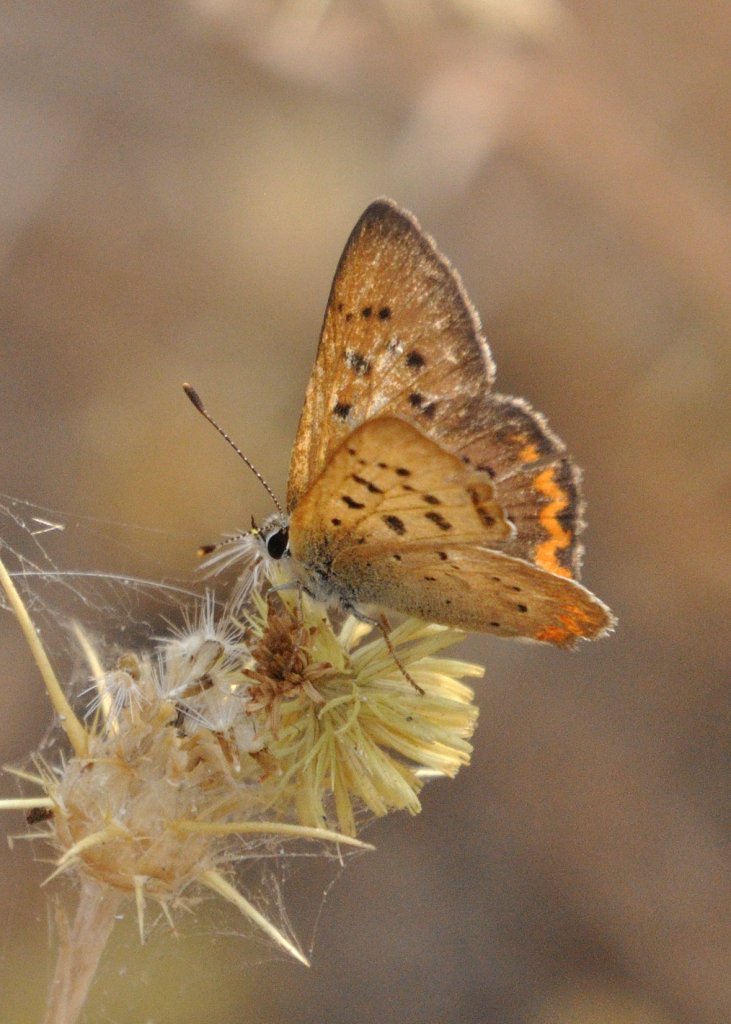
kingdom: Animalia
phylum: Arthropoda
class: Insecta
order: Lepidoptera
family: Sesiidae
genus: Sesia
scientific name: Sesia Lycaena helloides
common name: Purplish Copper
